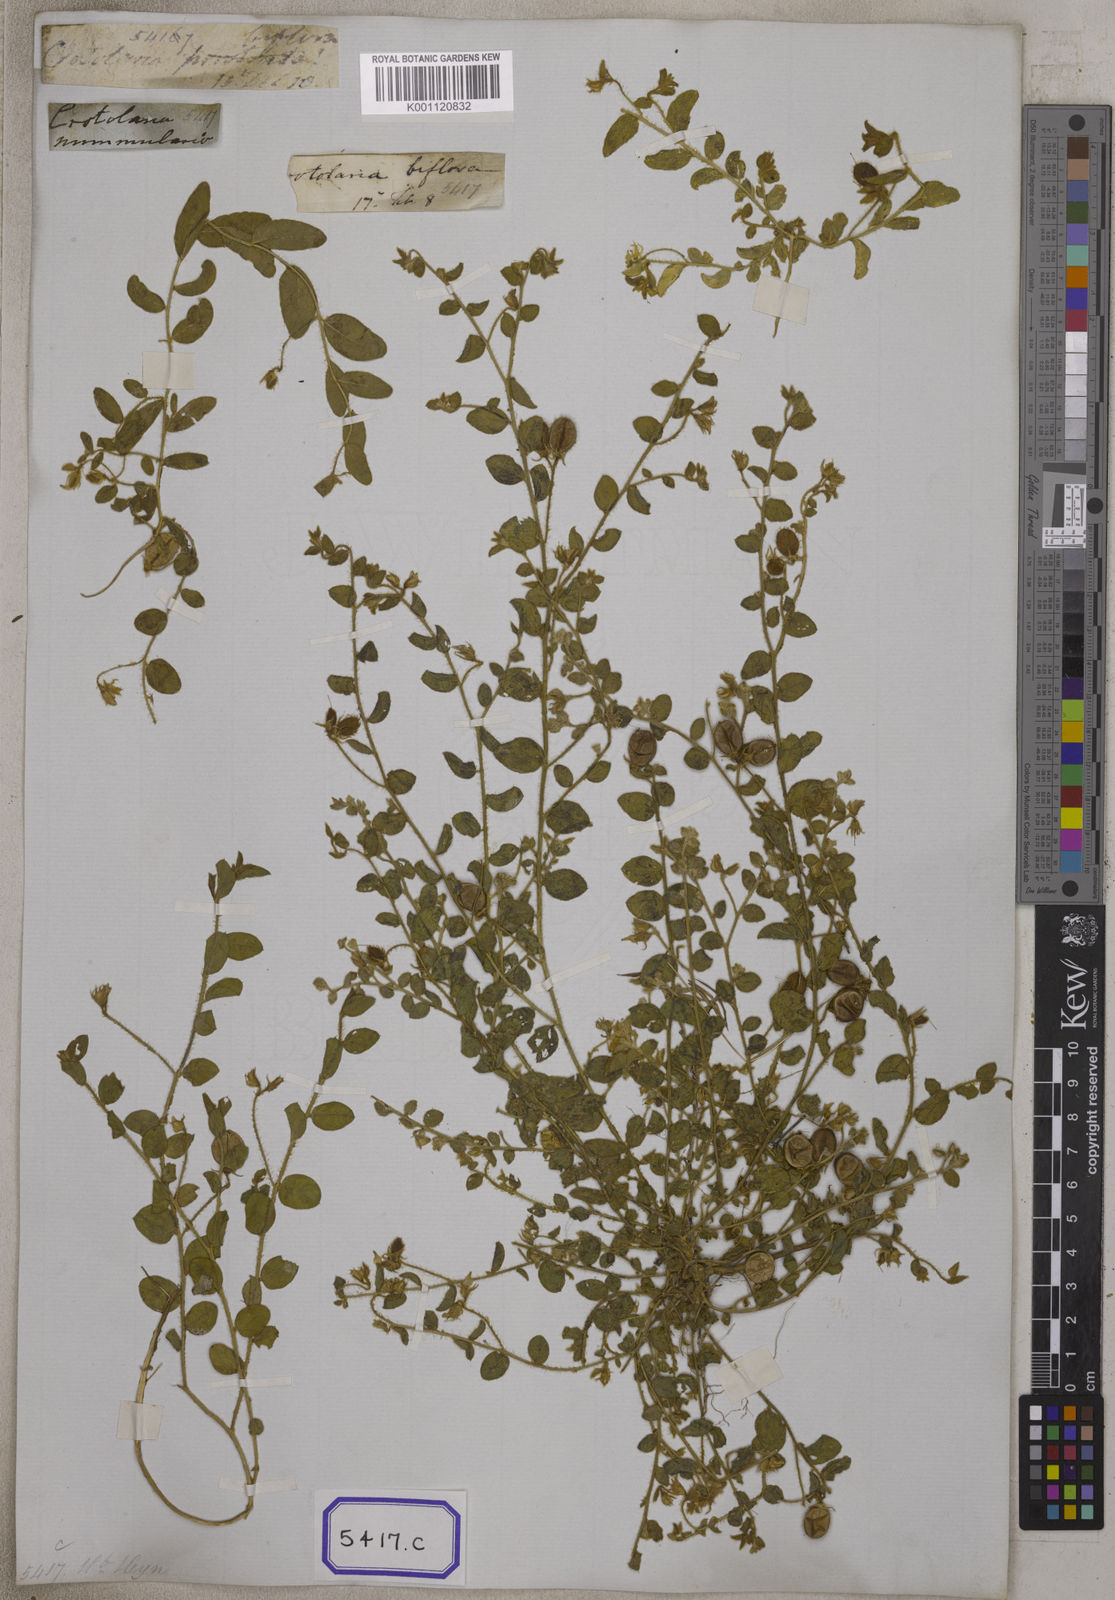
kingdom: Plantae
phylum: Tracheophyta
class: Magnoliopsida
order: Fabales
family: Fabaceae
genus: Crotalaria
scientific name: Crotalaria angulata
